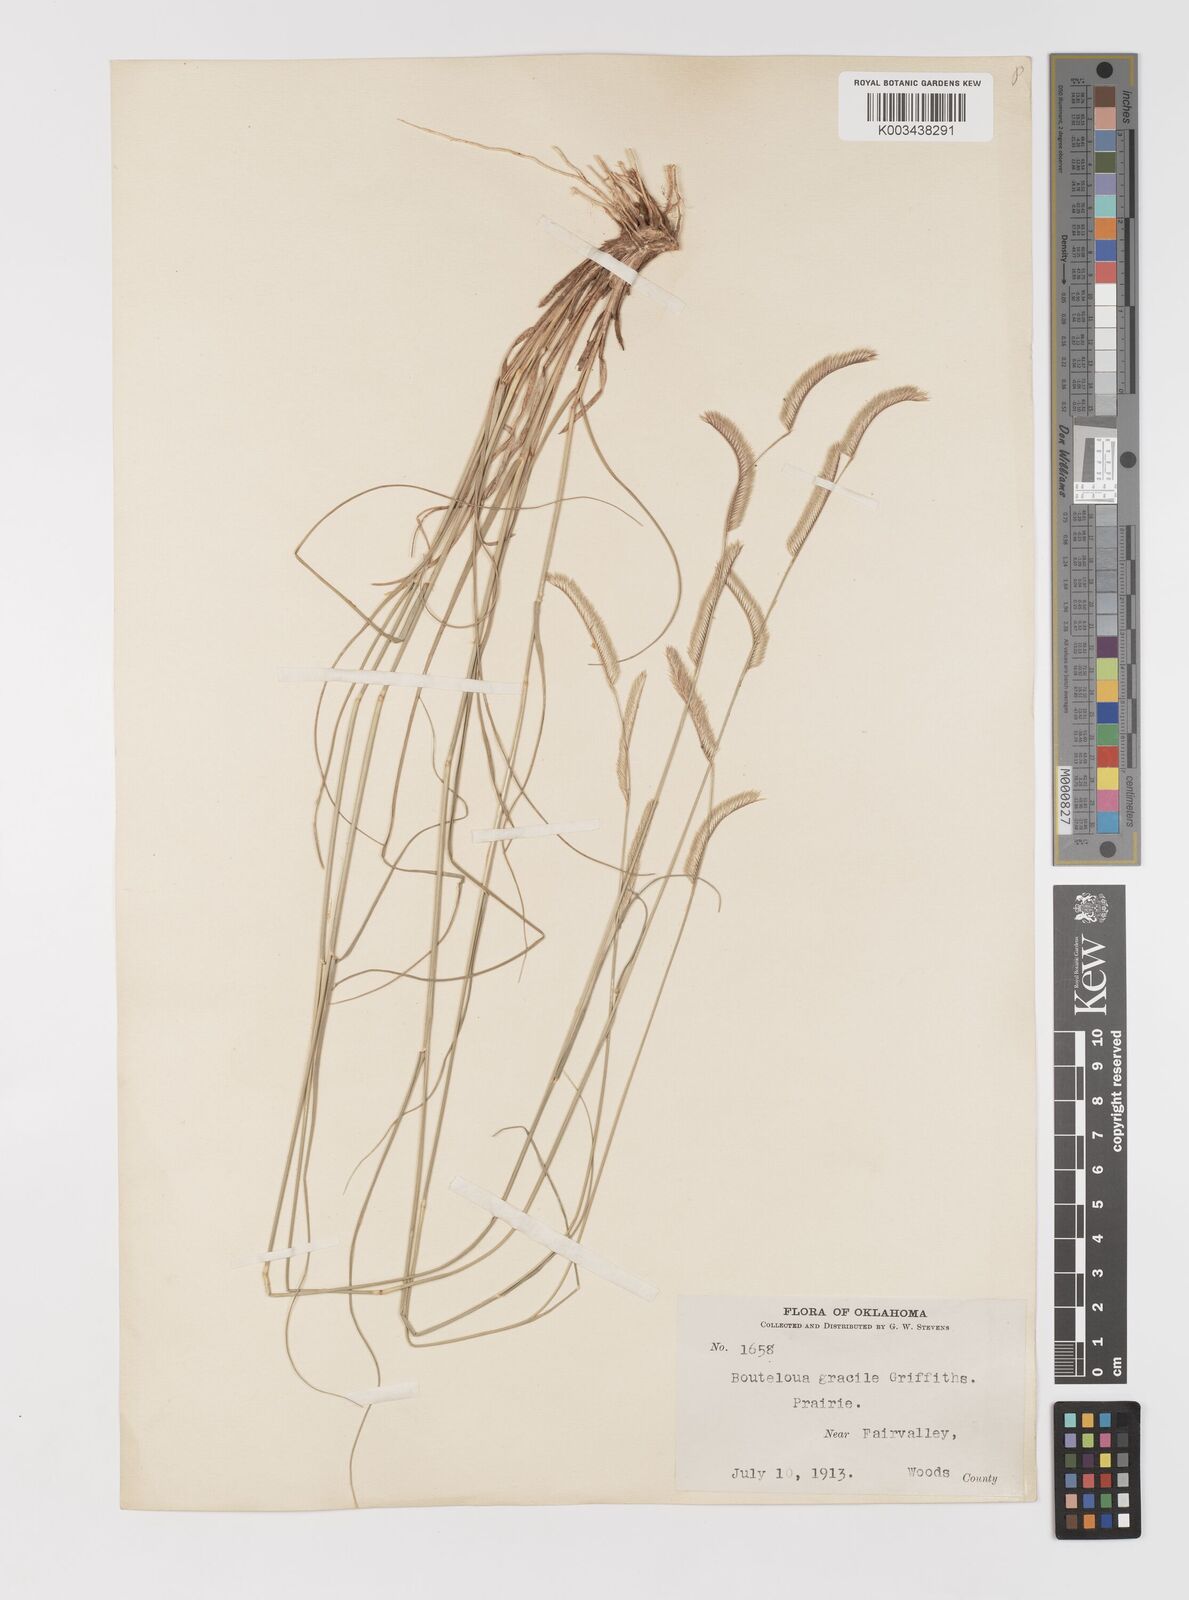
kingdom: Plantae
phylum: Tracheophyta
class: Liliopsida
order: Poales
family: Poaceae
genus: Bouteloua
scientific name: Bouteloua
